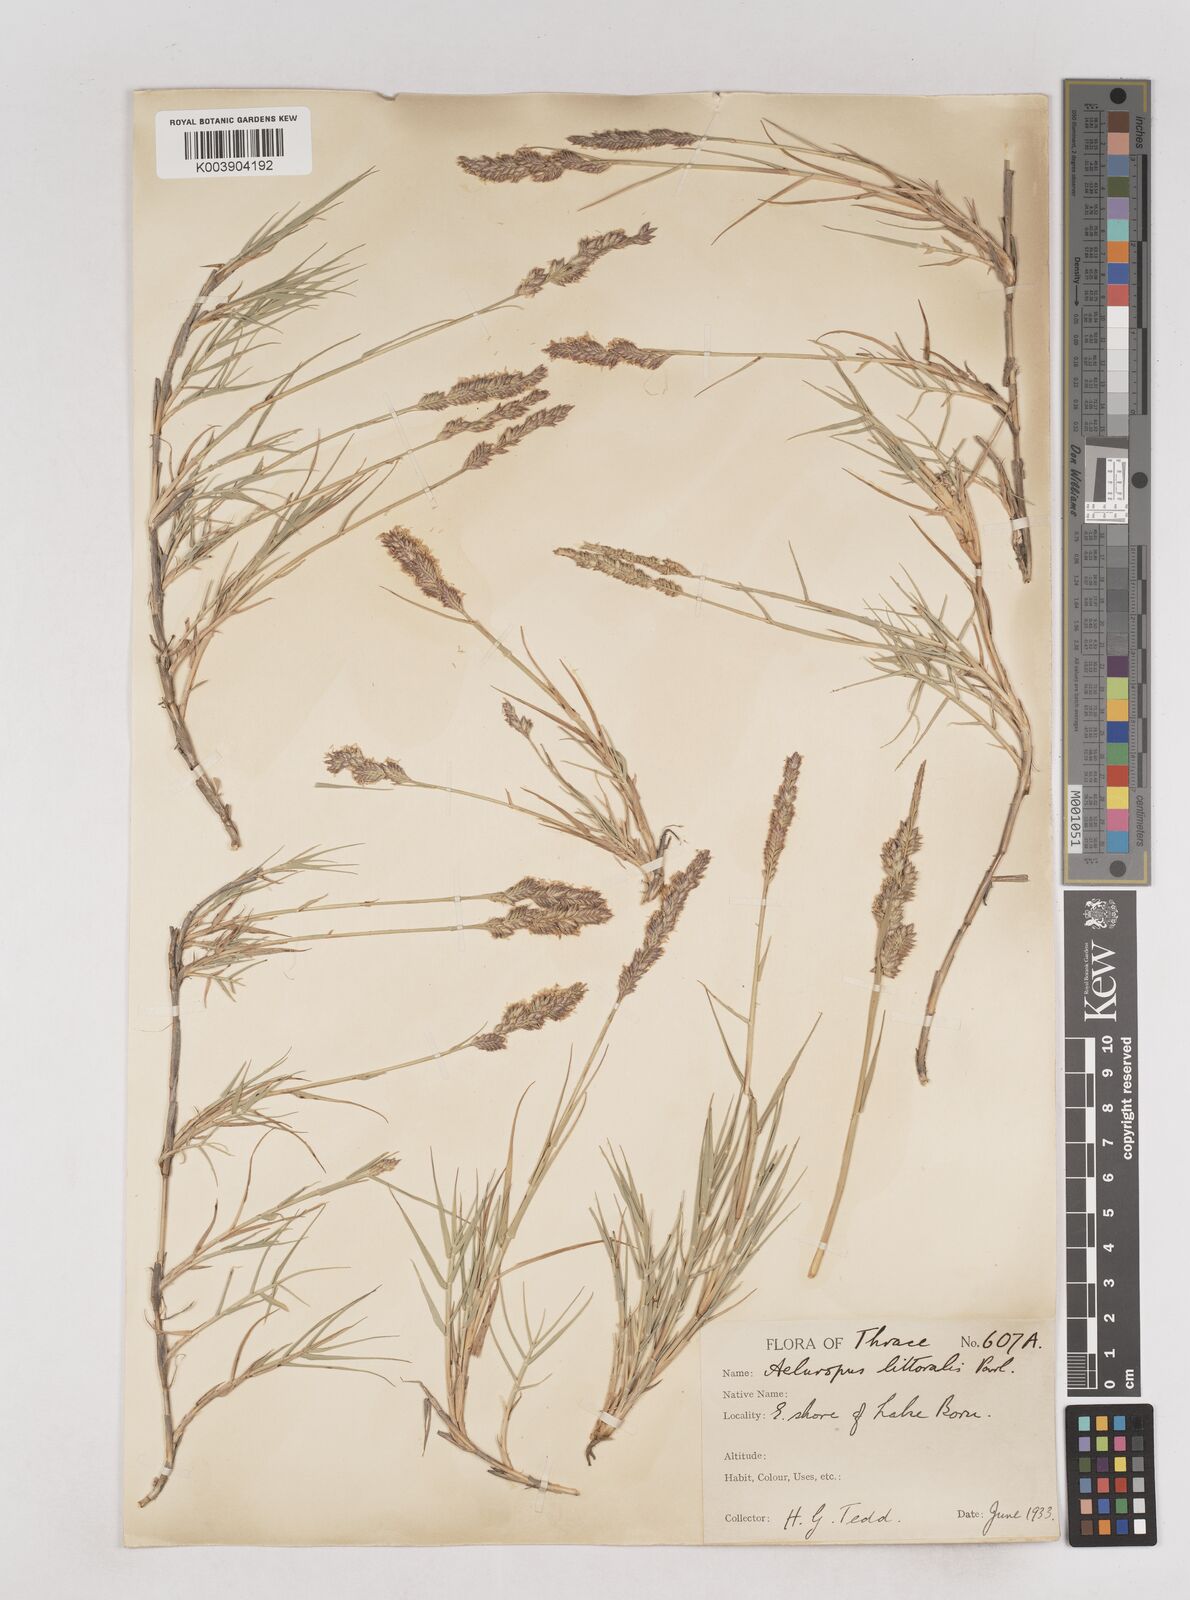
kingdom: Plantae
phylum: Tracheophyta
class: Liliopsida
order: Poales
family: Poaceae
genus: Aeluropus
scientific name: Aeluropus littoralis
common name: Indian walnut
